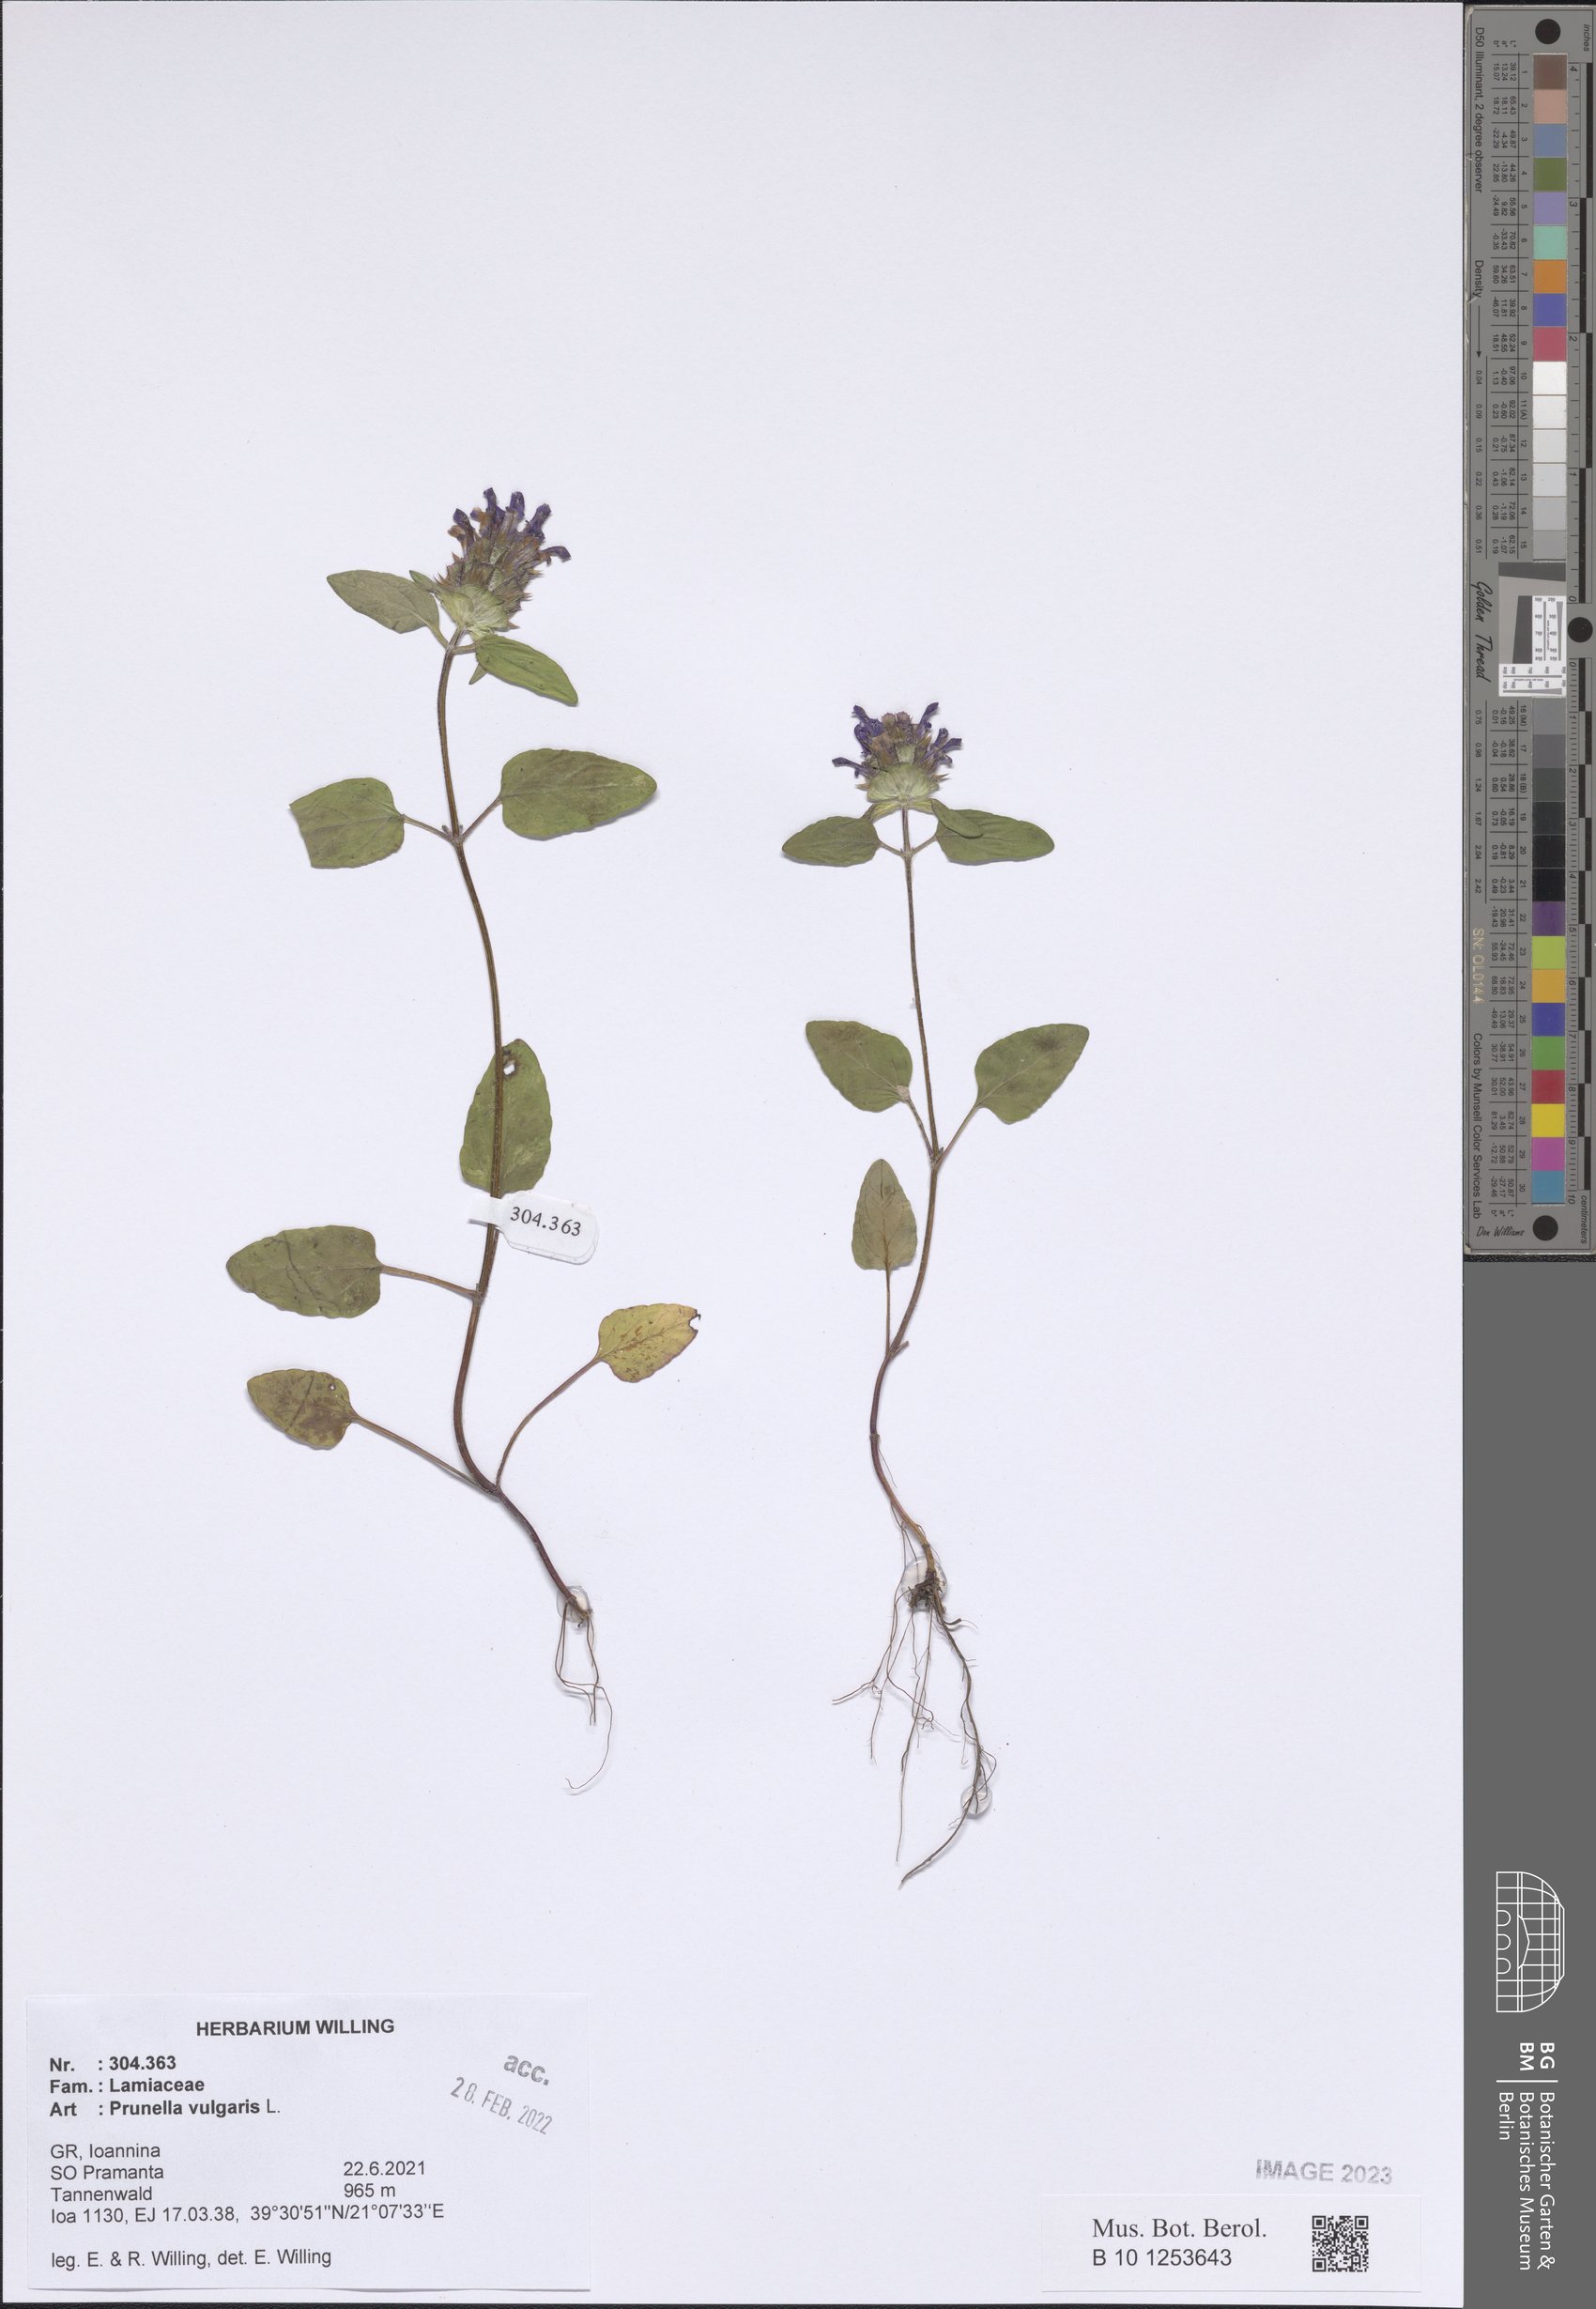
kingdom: Plantae
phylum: Tracheophyta
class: Magnoliopsida
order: Lamiales
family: Lamiaceae
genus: Prunella
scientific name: Prunella vulgaris
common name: Heal-all
